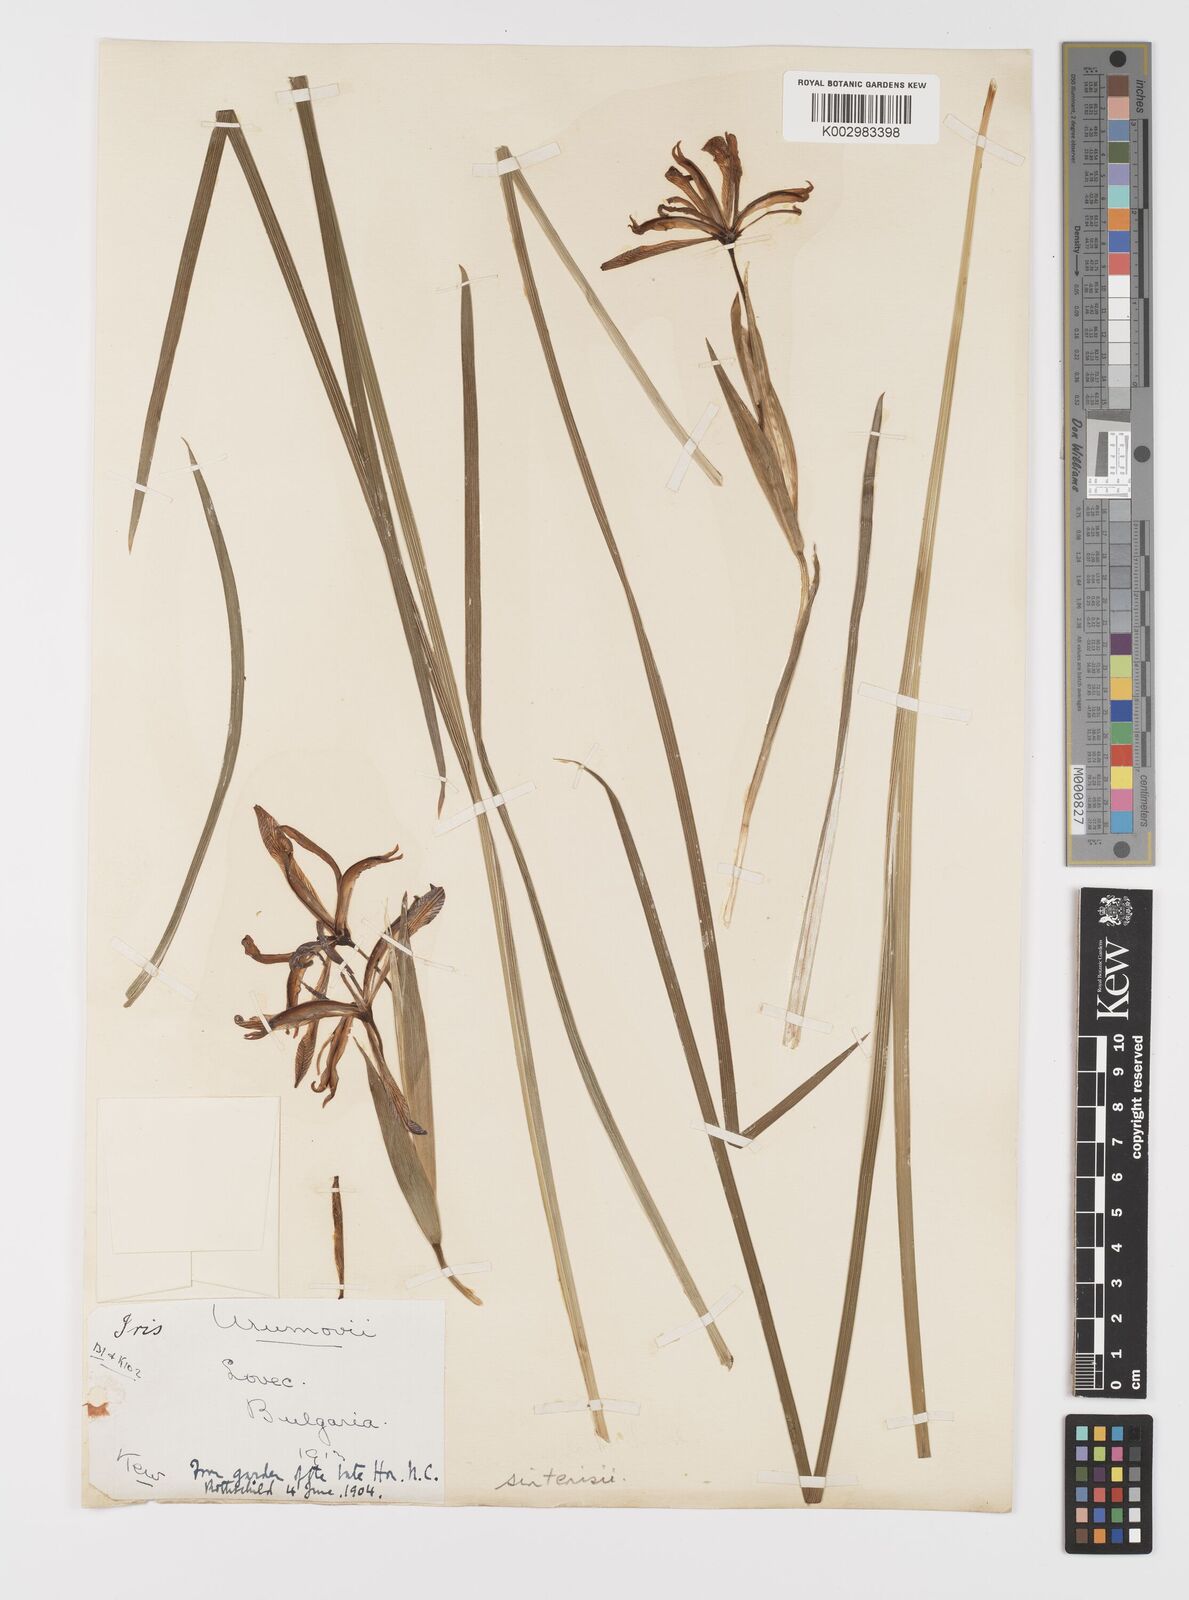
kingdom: Plantae
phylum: Tracheophyta
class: Liliopsida
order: Asparagales
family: Iridaceae
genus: Iris
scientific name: Iris sintenisii
